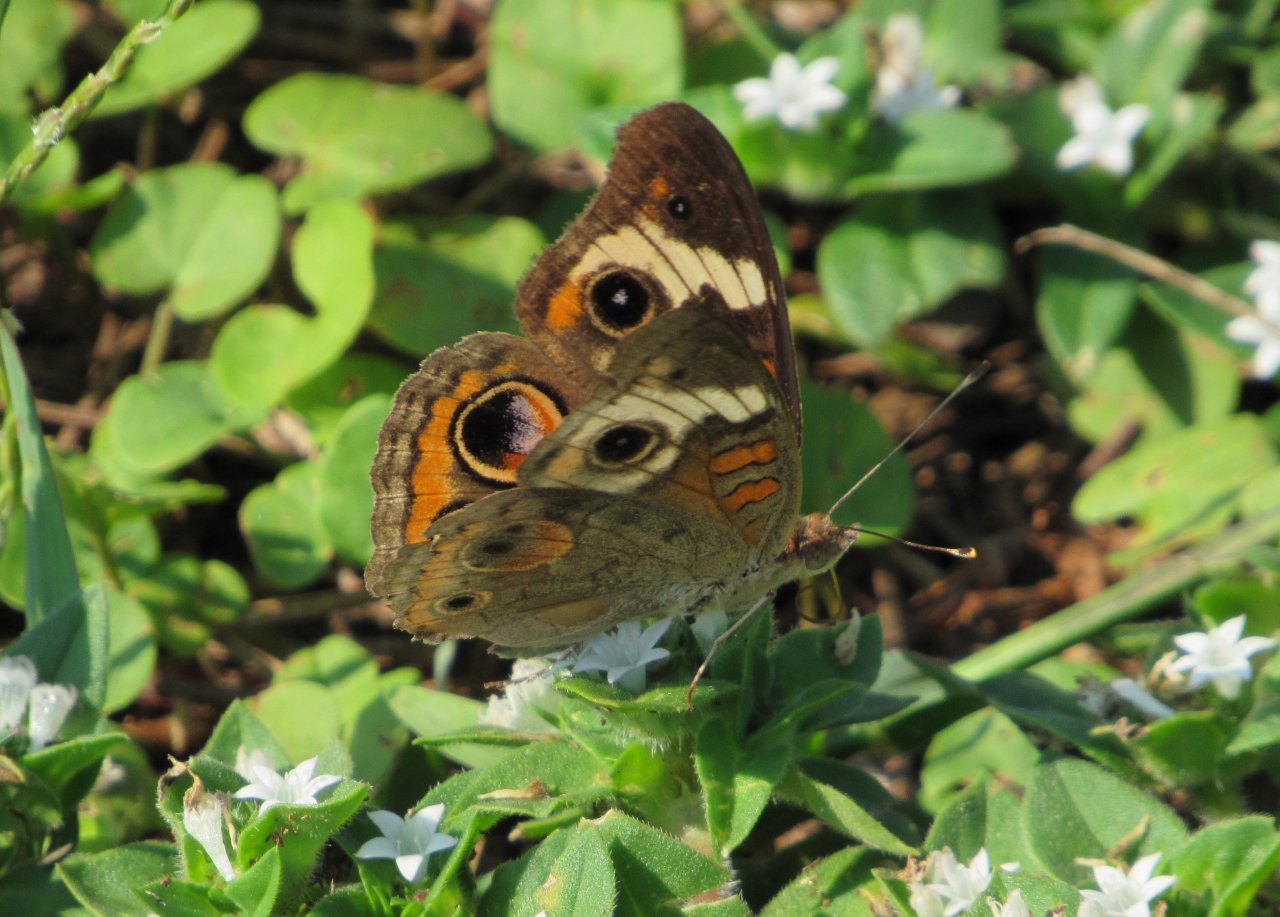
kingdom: Animalia
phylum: Arthropoda
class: Insecta
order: Lepidoptera
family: Nymphalidae
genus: Junonia
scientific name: Junonia coenia
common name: Common Buckeye
